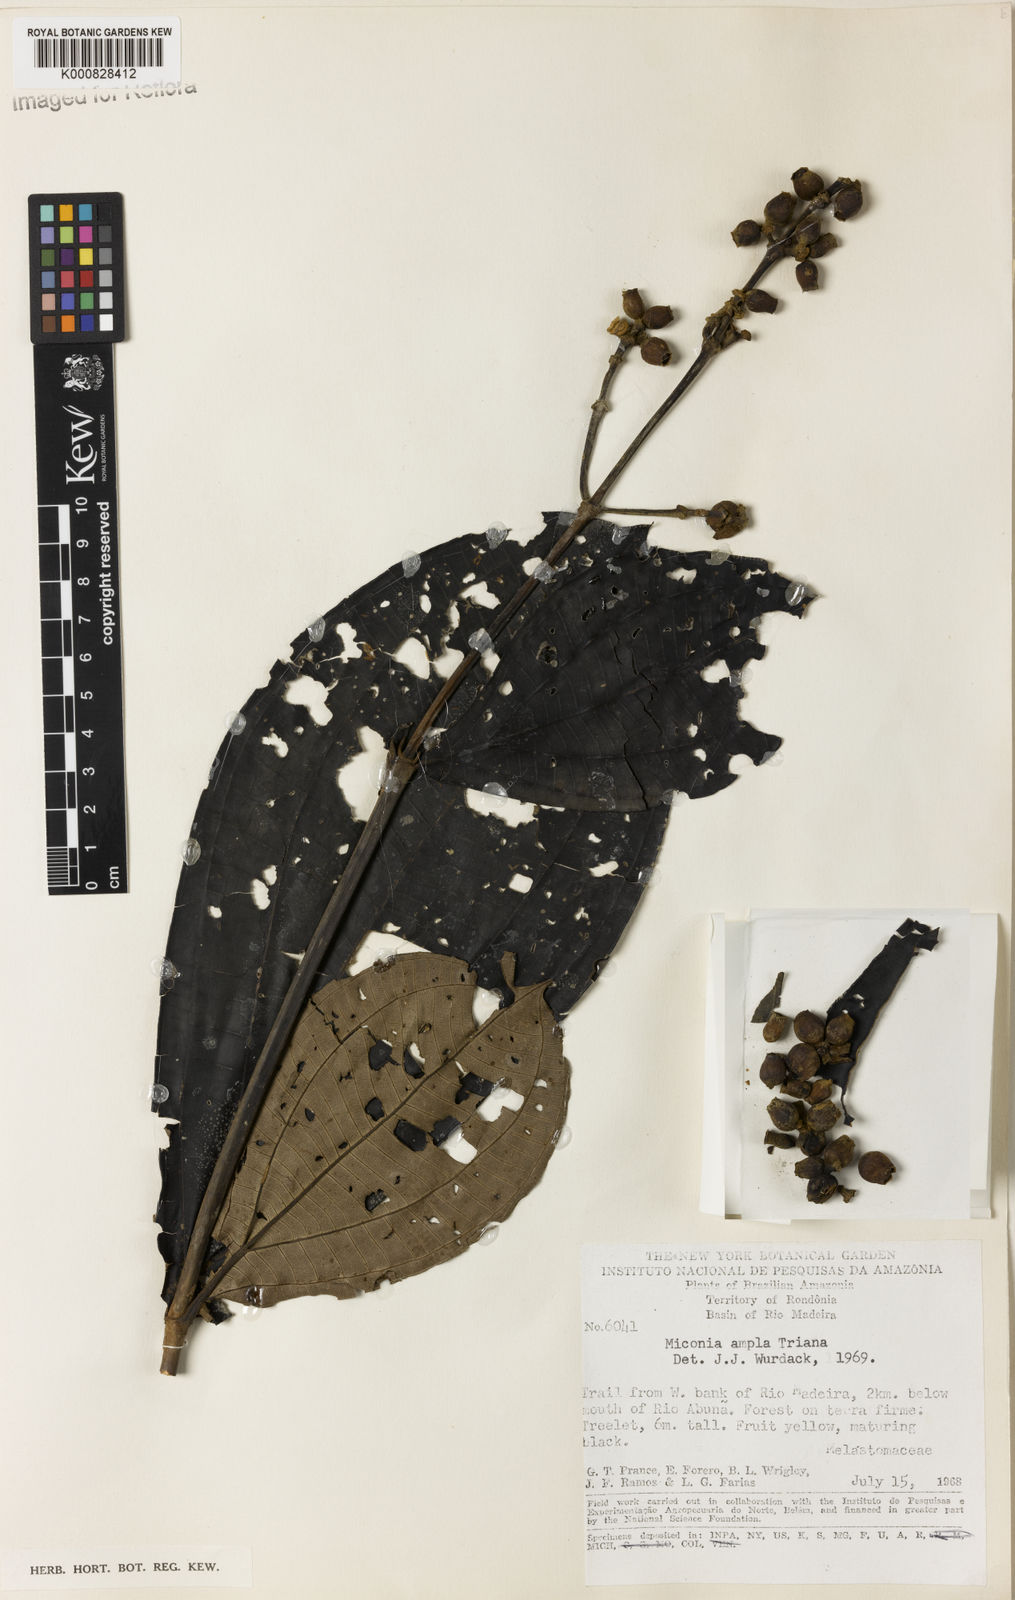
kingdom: Plantae
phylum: Tracheophyta
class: Magnoliopsida
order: Myrtales
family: Melastomataceae
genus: Miconia
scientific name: Miconia ampla
